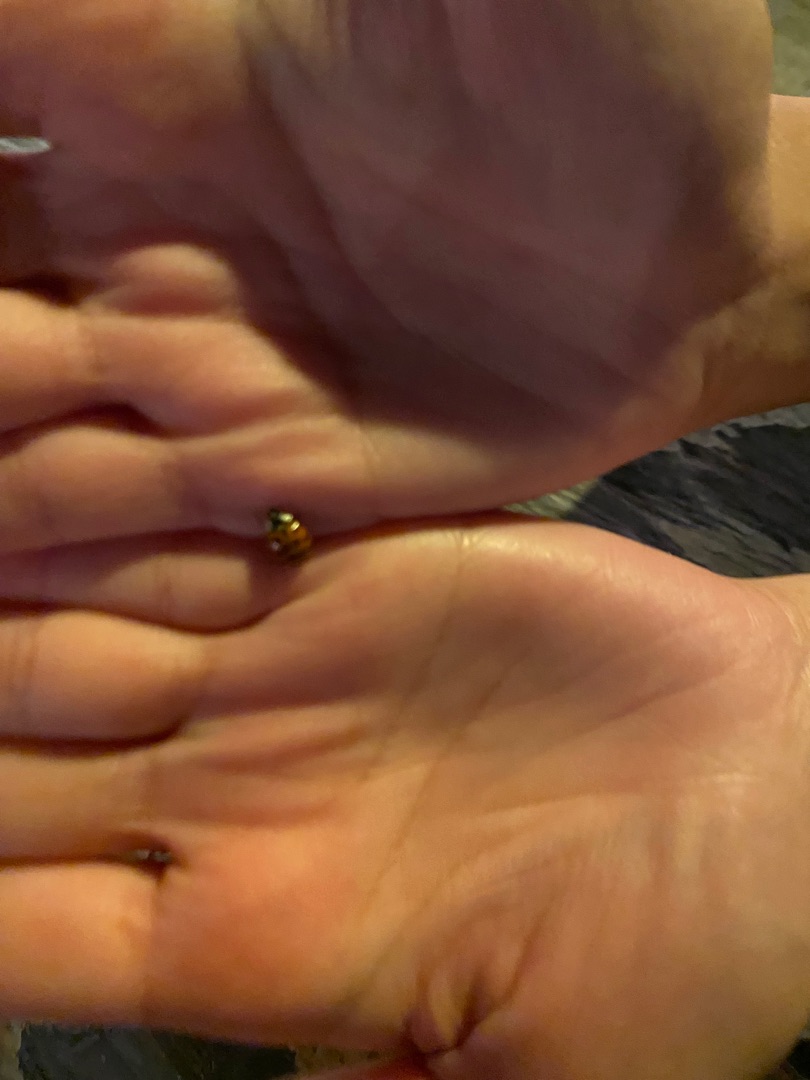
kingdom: Animalia
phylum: Arthropoda
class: Insecta
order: Coleoptera
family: Coccinellidae
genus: Harmonia
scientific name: Harmonia axyridis
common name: Harlekinmariehøne
